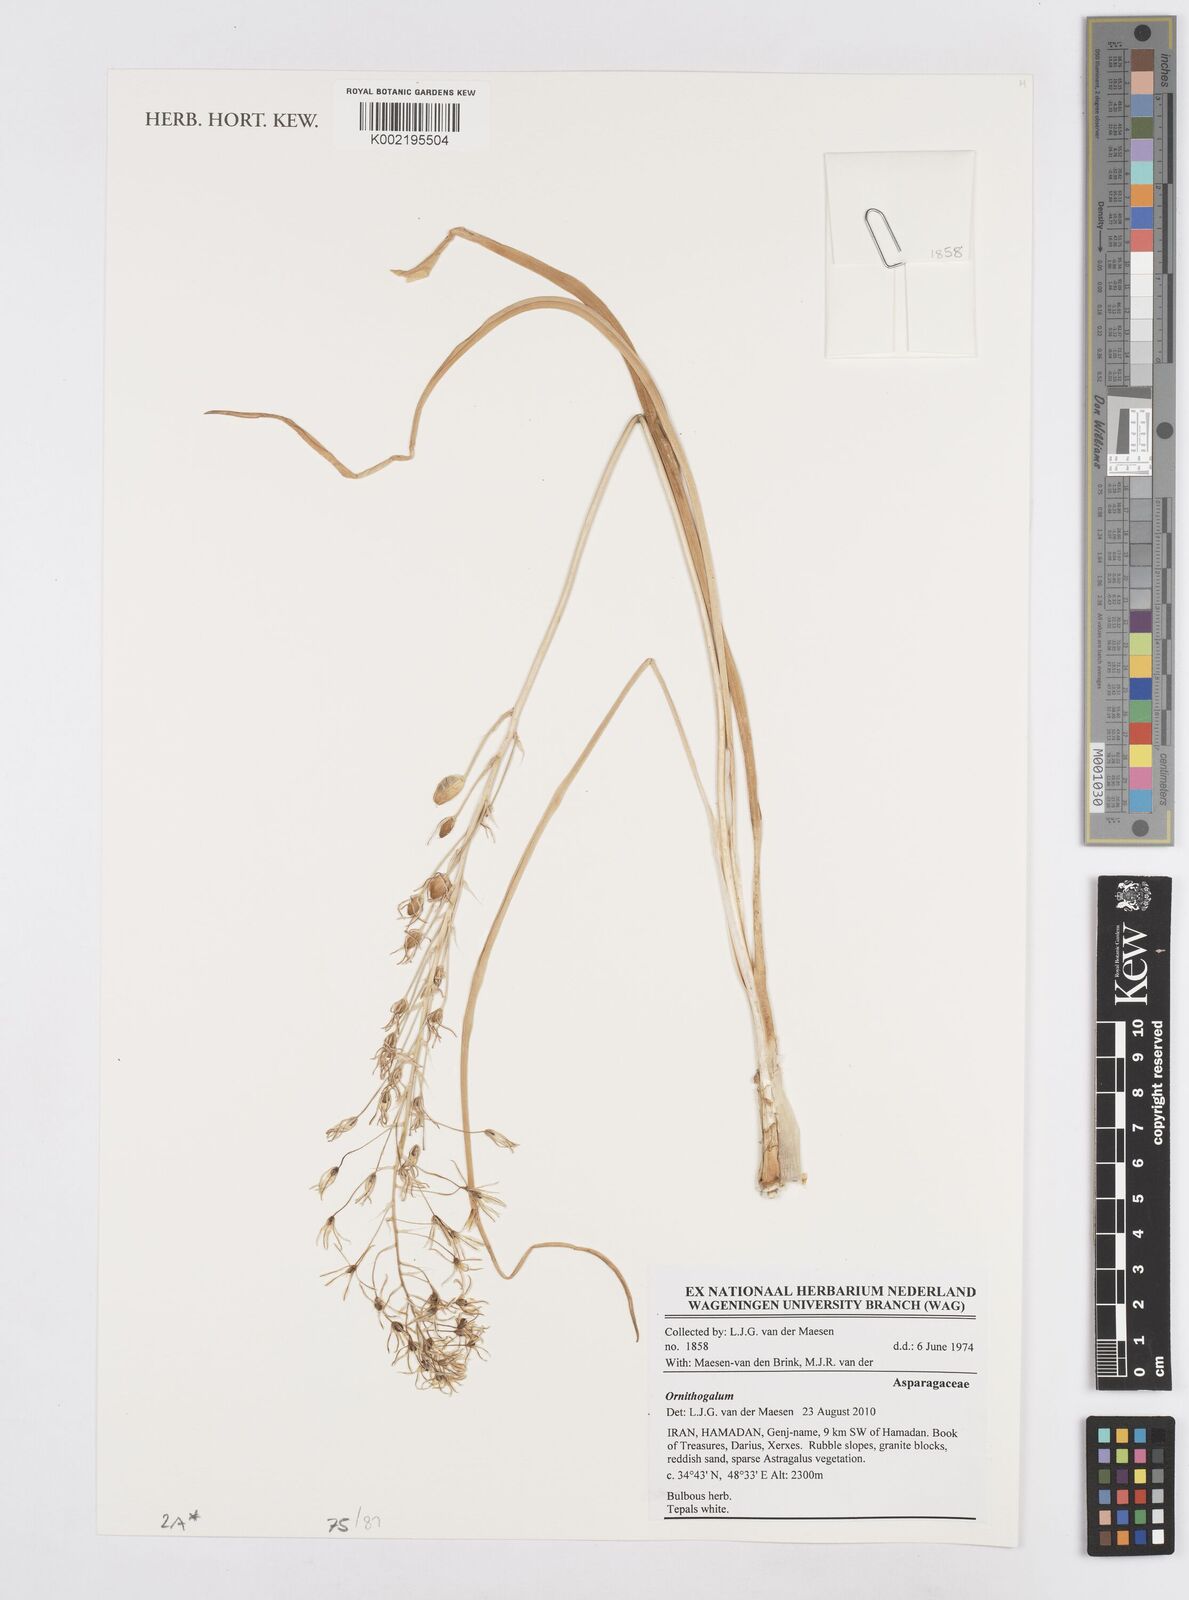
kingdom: Plantae
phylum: Tracheophyta
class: Liliopsida
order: Asparagales
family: Asparagaceae
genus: Ornithogalum
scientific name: Ornithogalum
